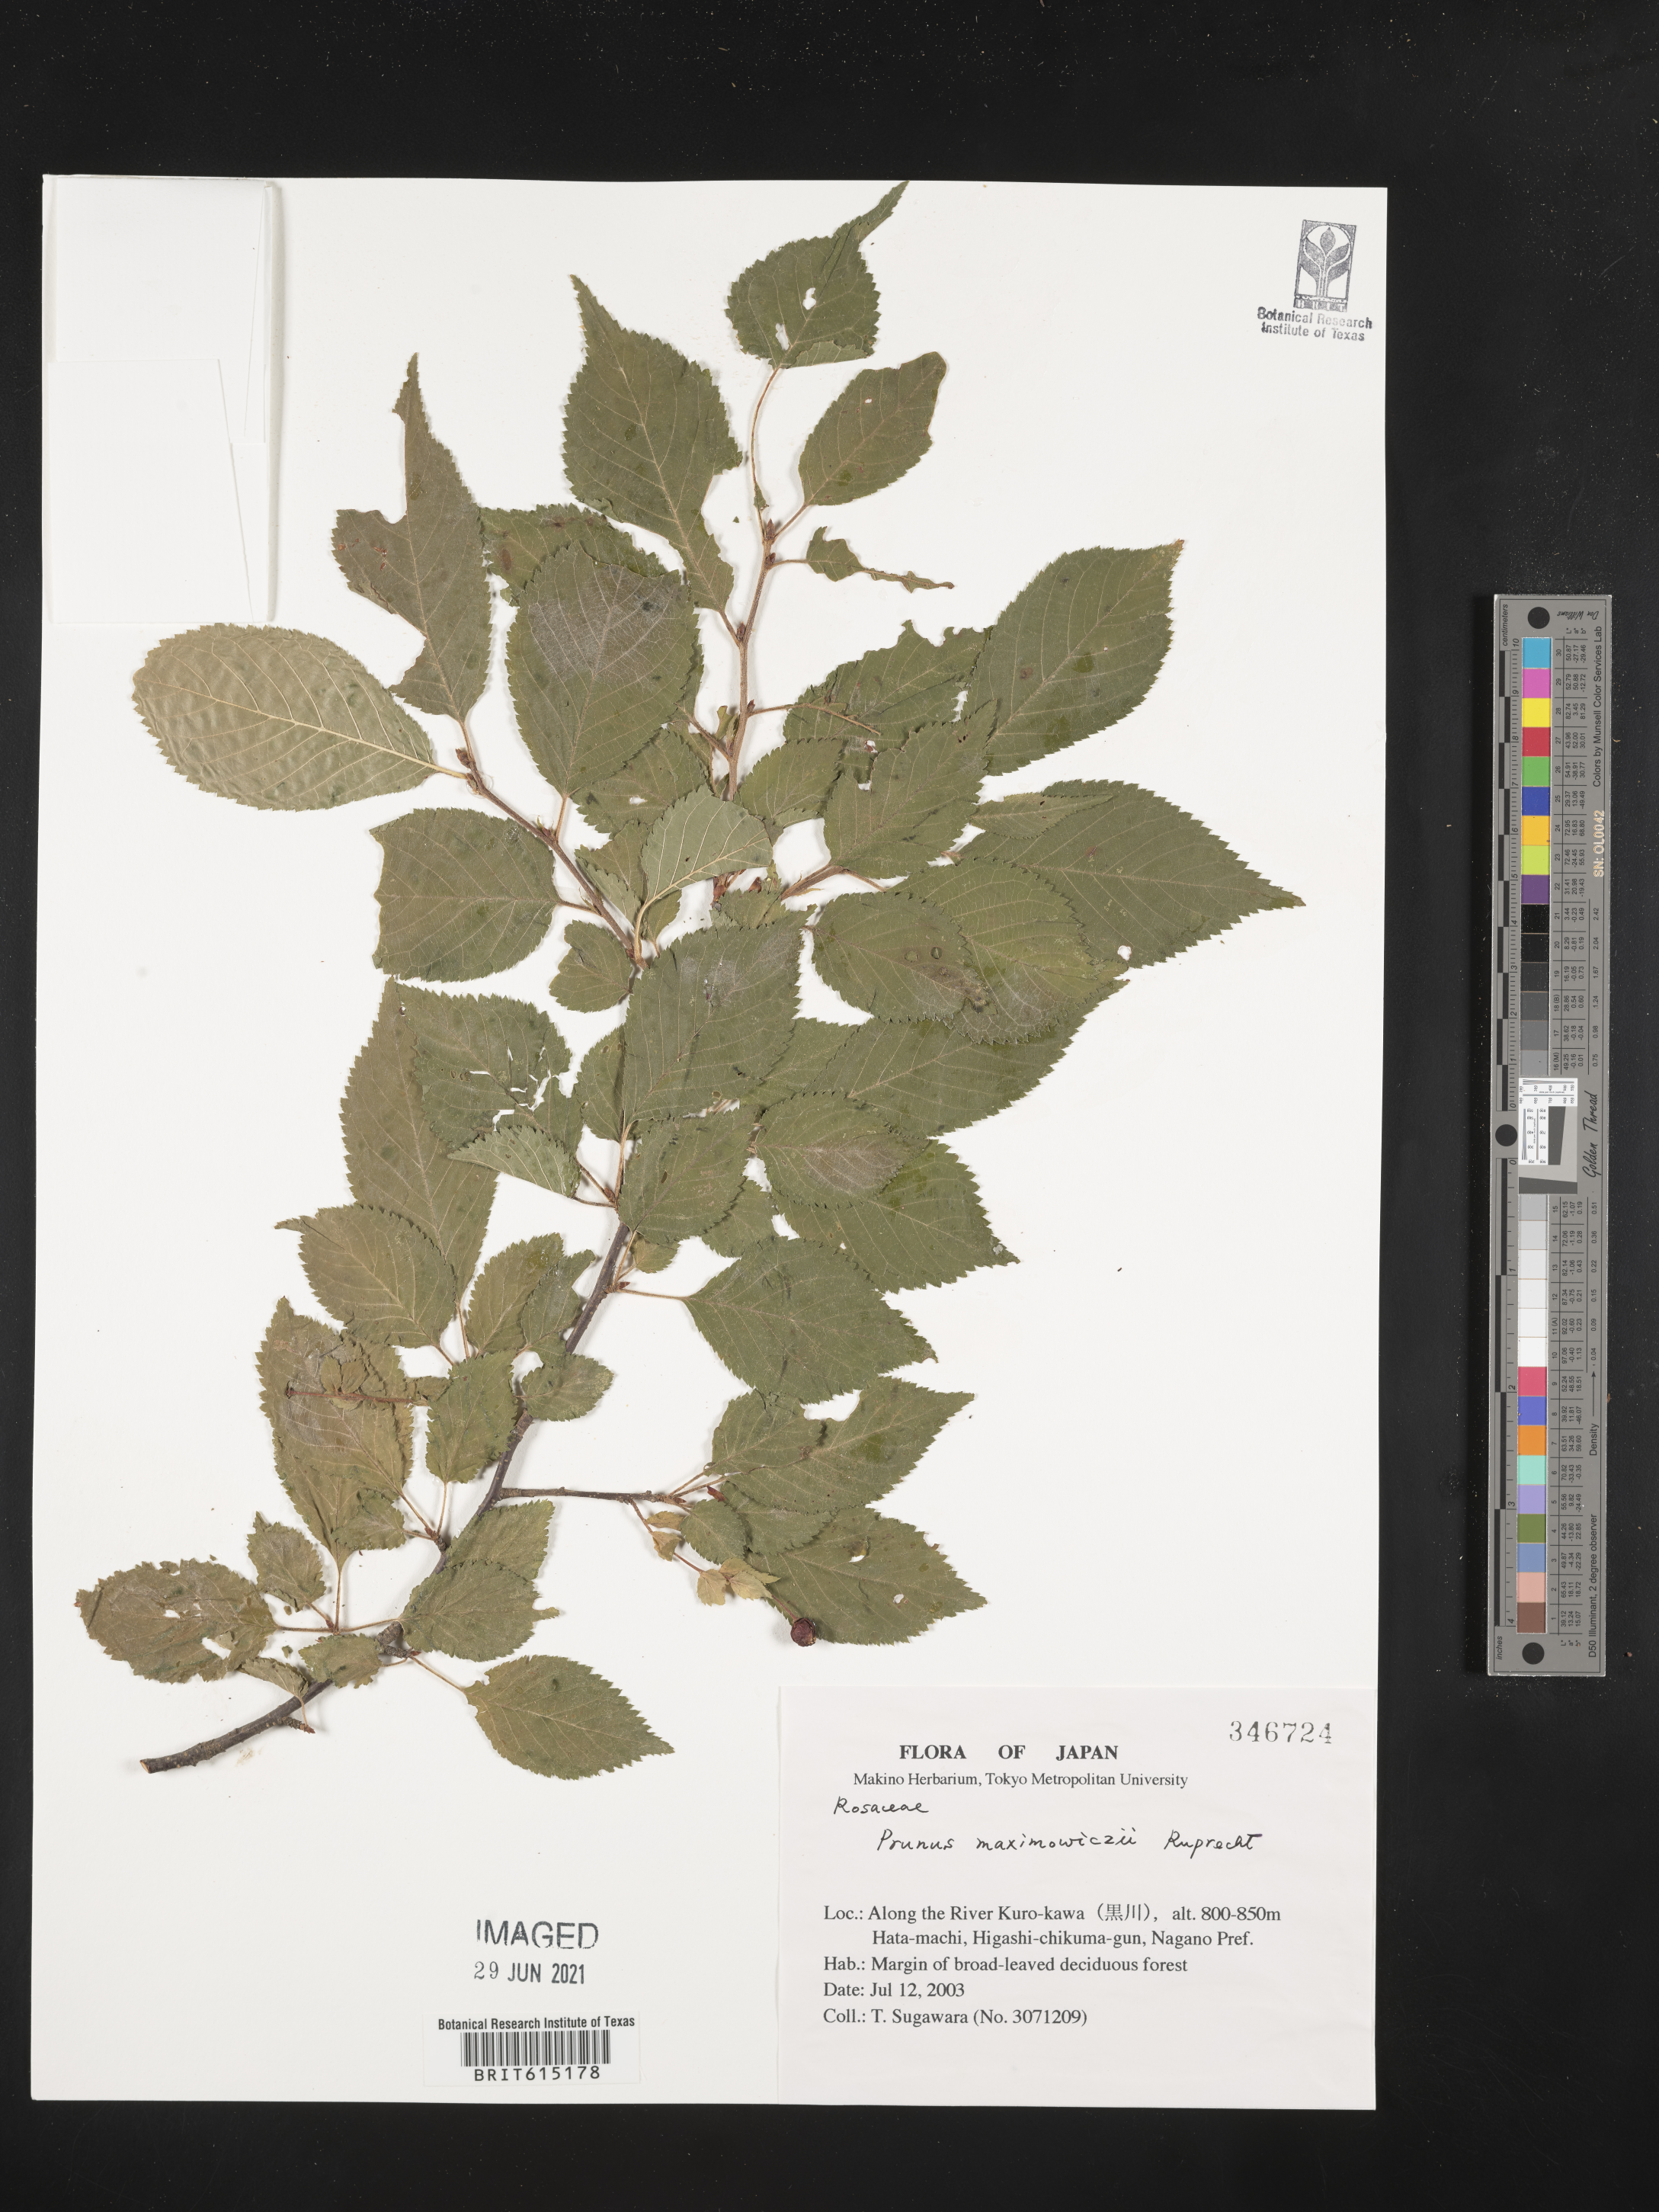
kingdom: Plantae
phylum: Tracheophyta
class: Magnoliopsida
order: Rosales
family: Rosaceae
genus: Prunus
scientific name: Prunus maximowiczii
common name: Korean cherry
